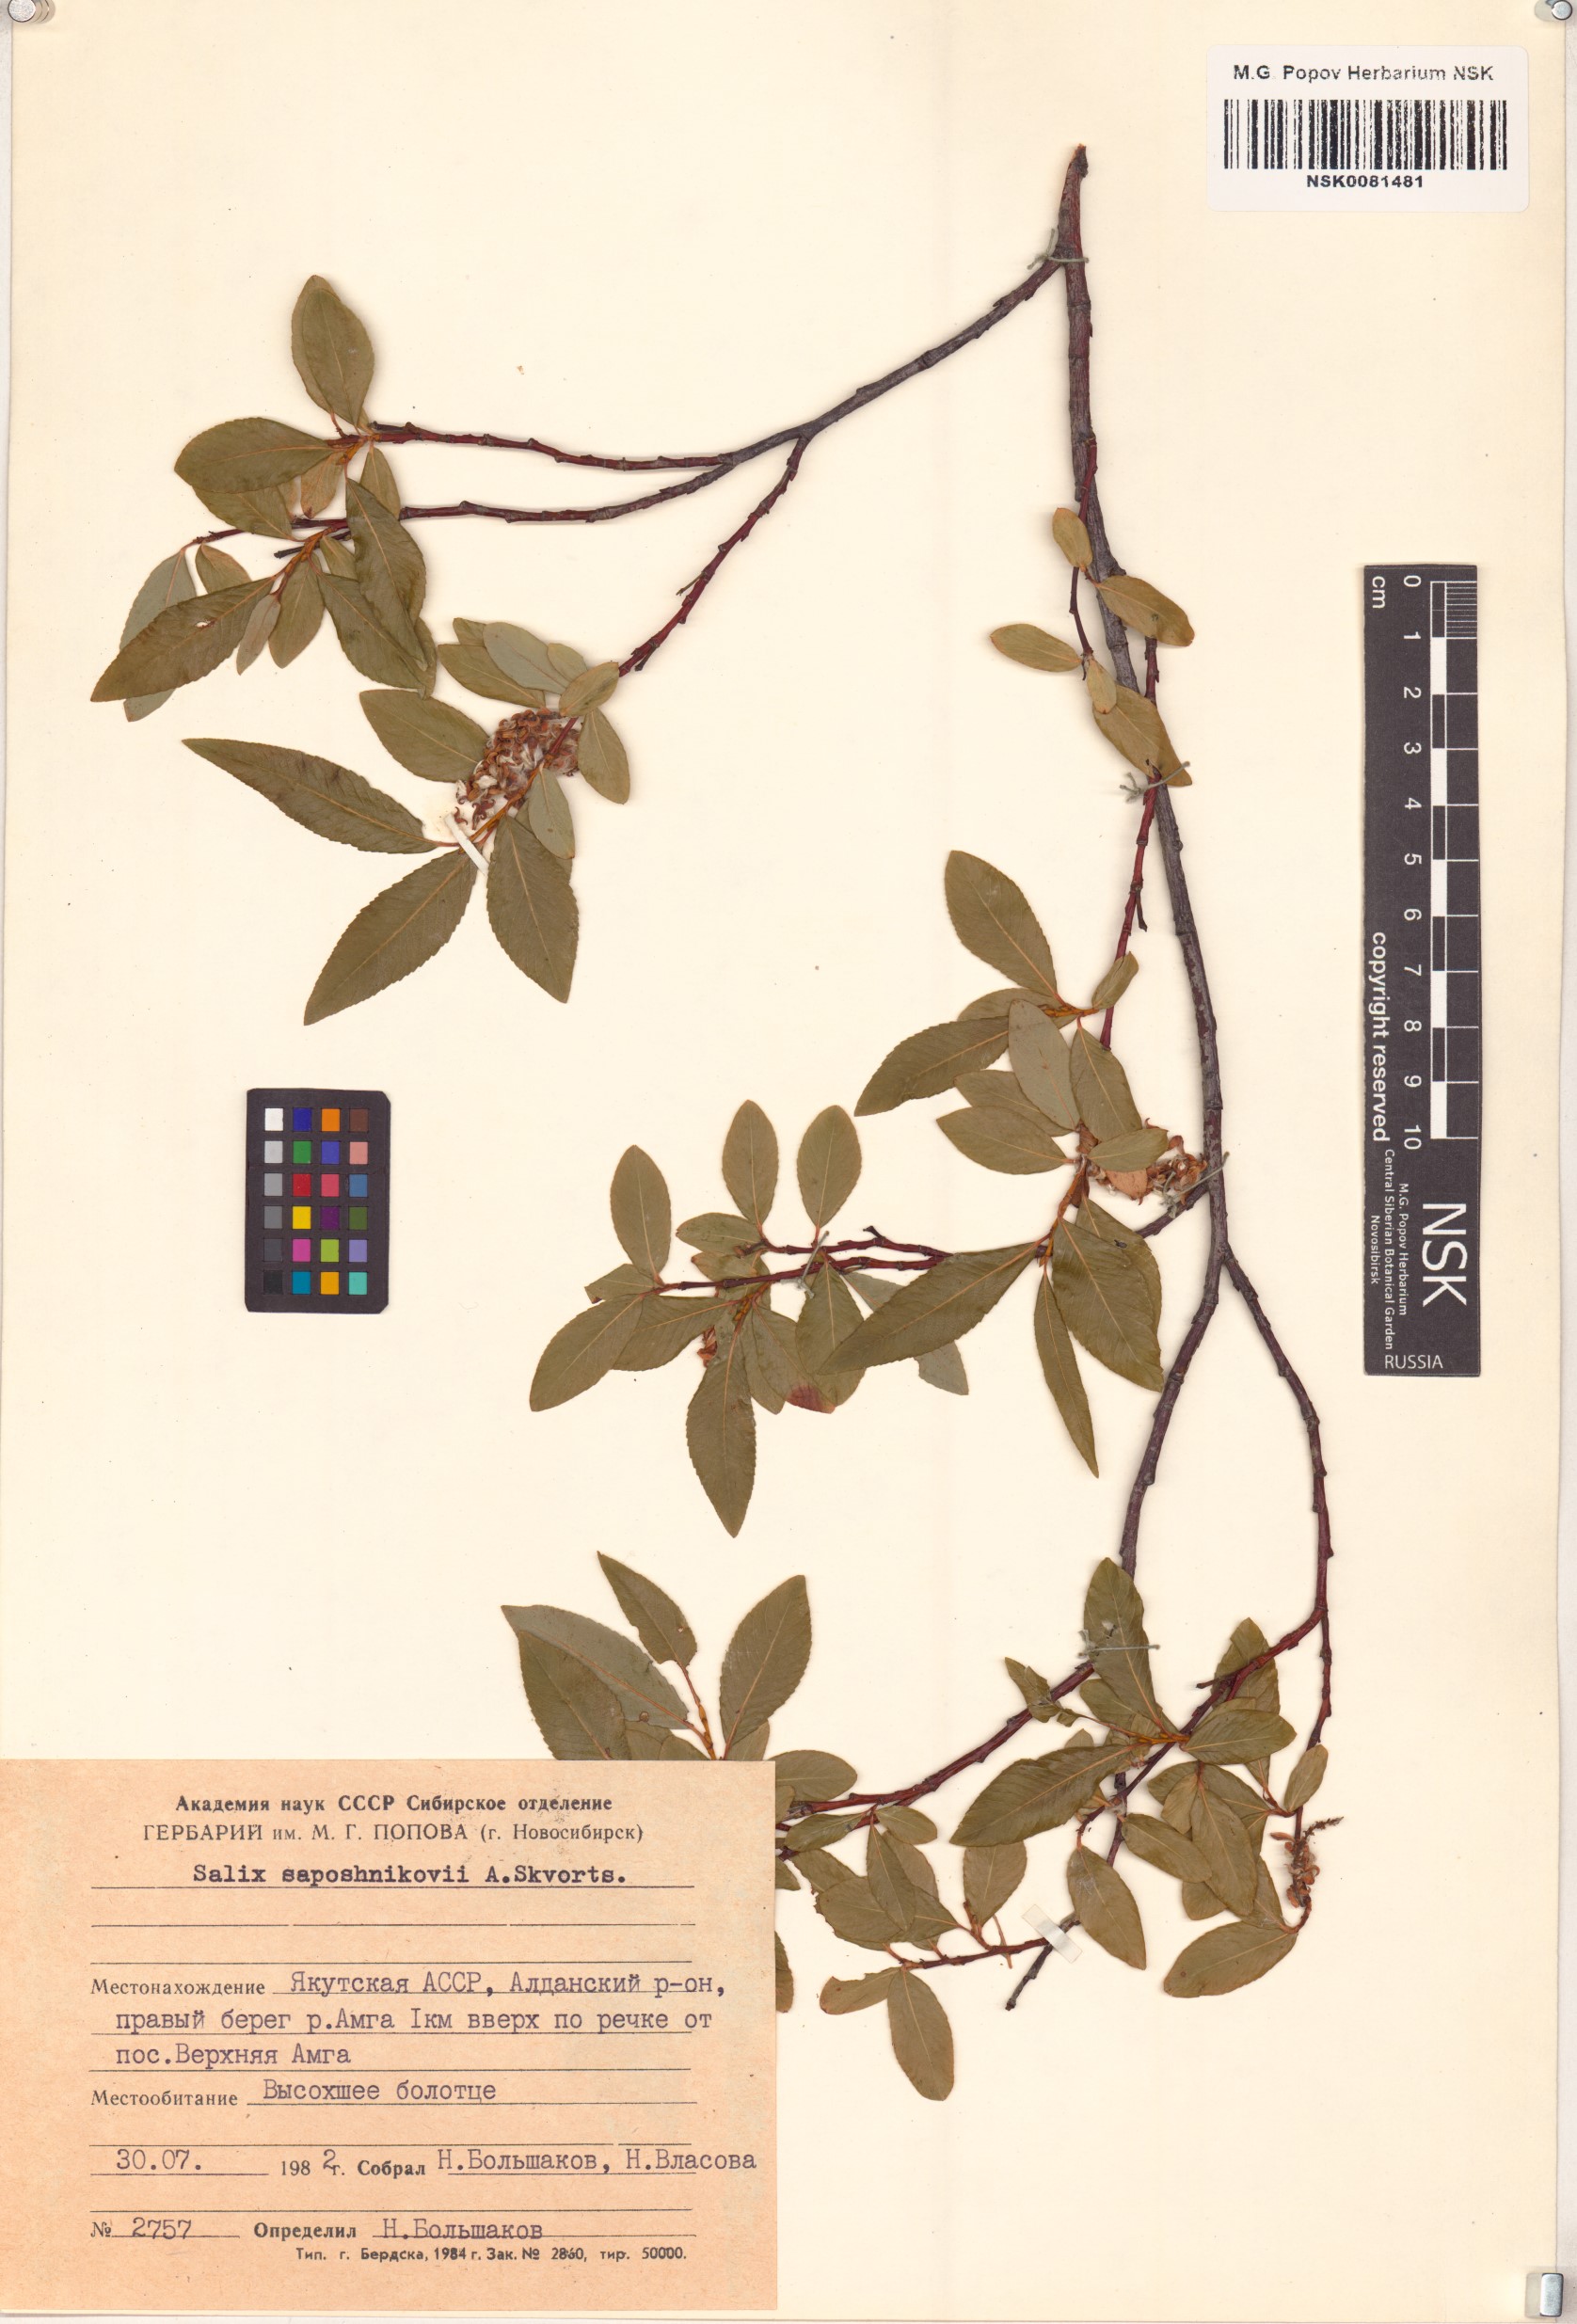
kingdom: Plantae
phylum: Tracheophyta
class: Magnoliopsida
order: Malpighiales
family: Salicaceae
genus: Salix
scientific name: Salix saposhnikovii
